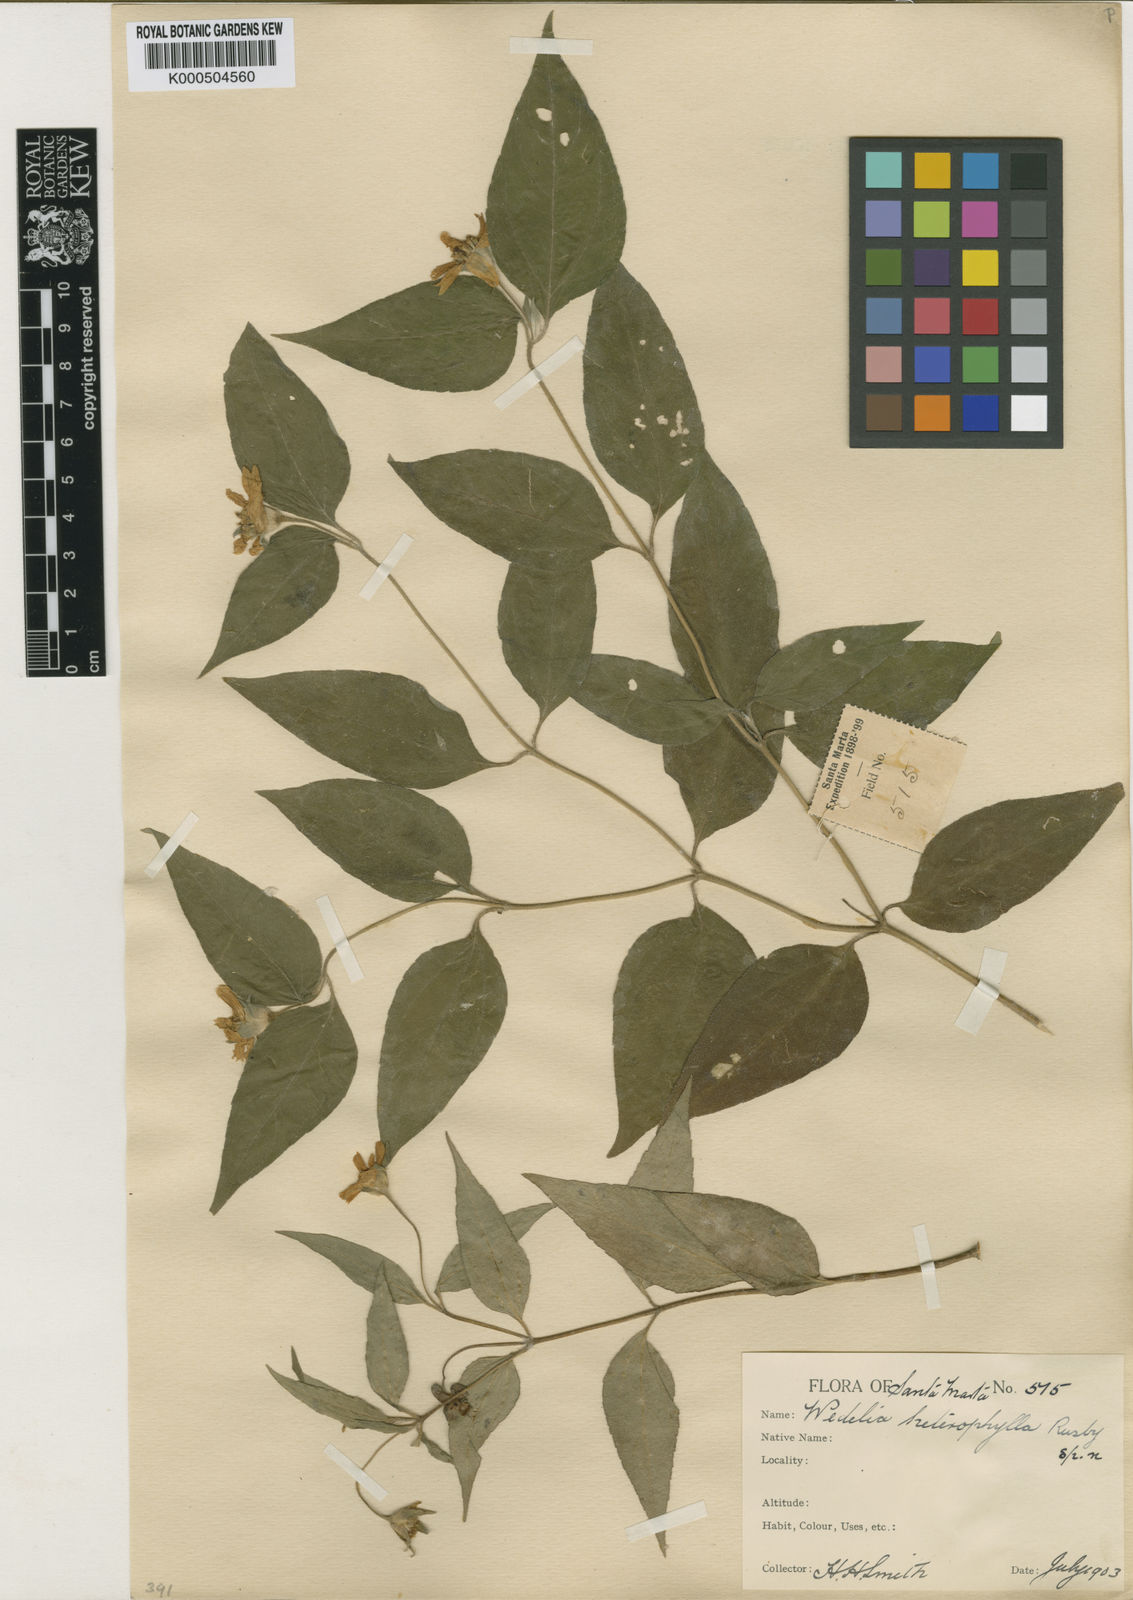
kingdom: Plantae
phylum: Tracheophyta
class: Magnoliopsida
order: Asterales
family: Asteraceae
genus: Wedelia
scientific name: Wedelia calycina
